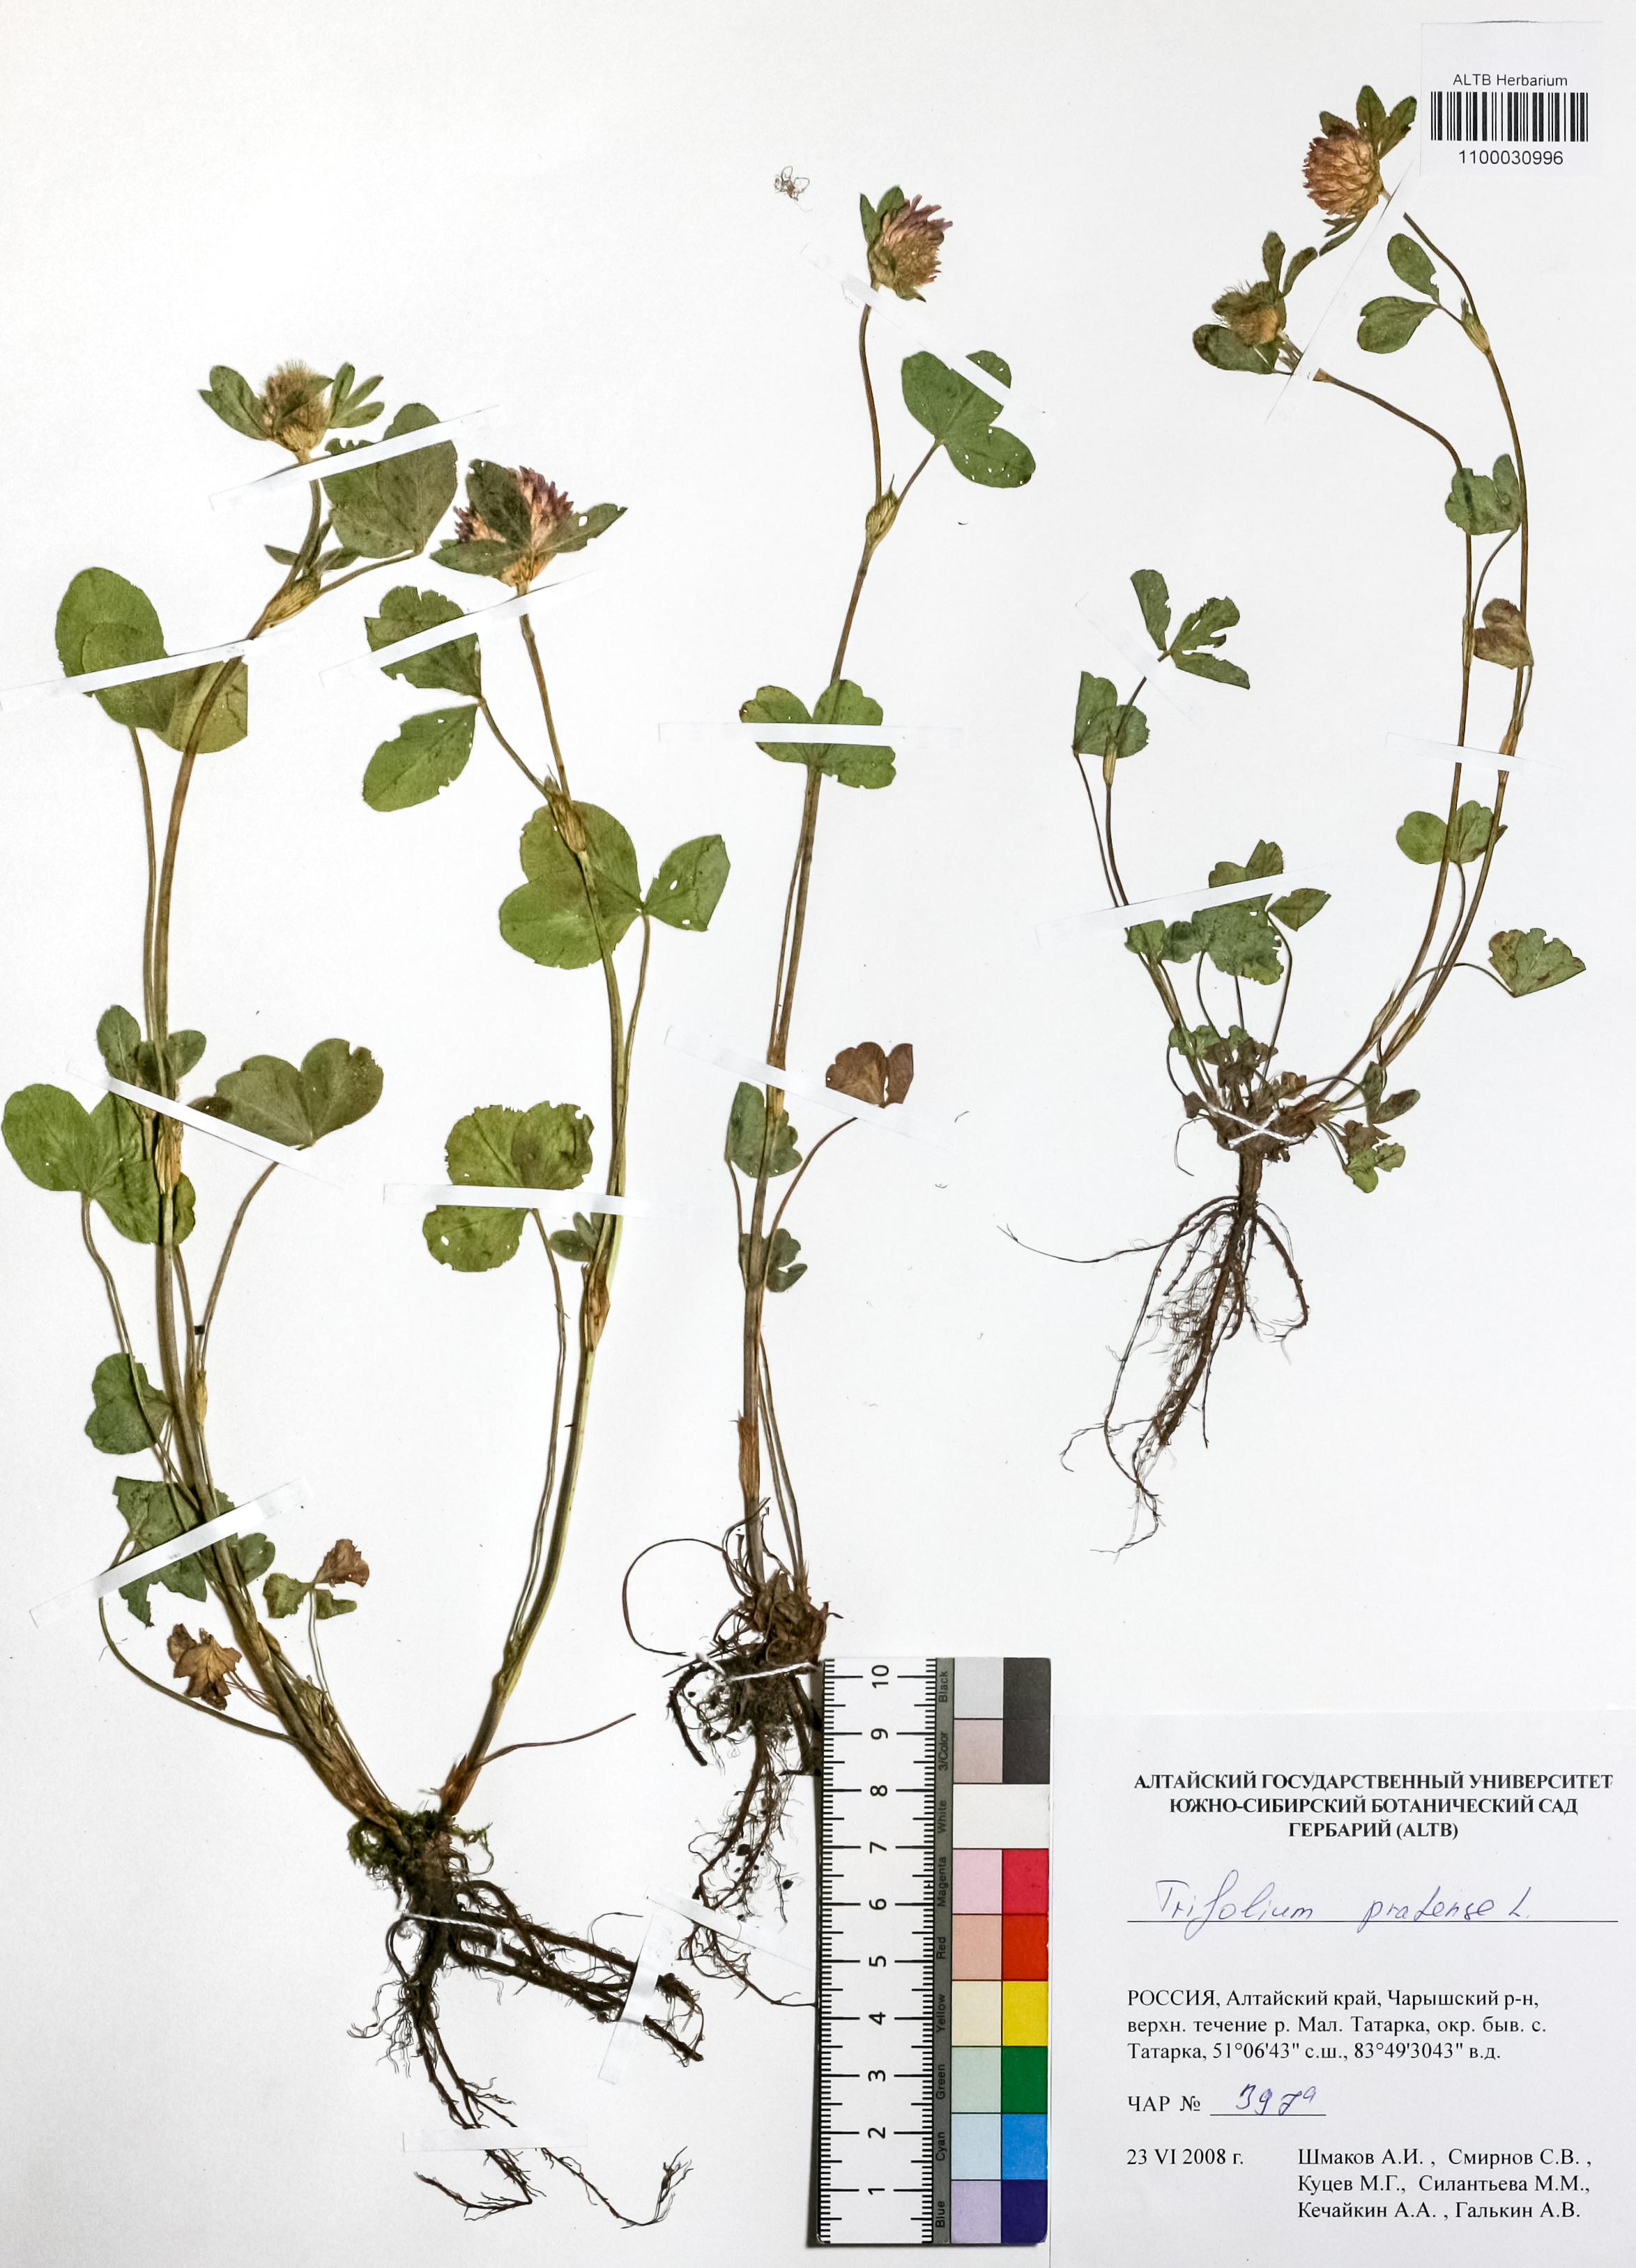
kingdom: Plantae
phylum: Tracheophyta
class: Magnoliopsida
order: Fabales
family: Fabaceae
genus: Trifolium
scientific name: Trifolium pratense
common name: Red clover
